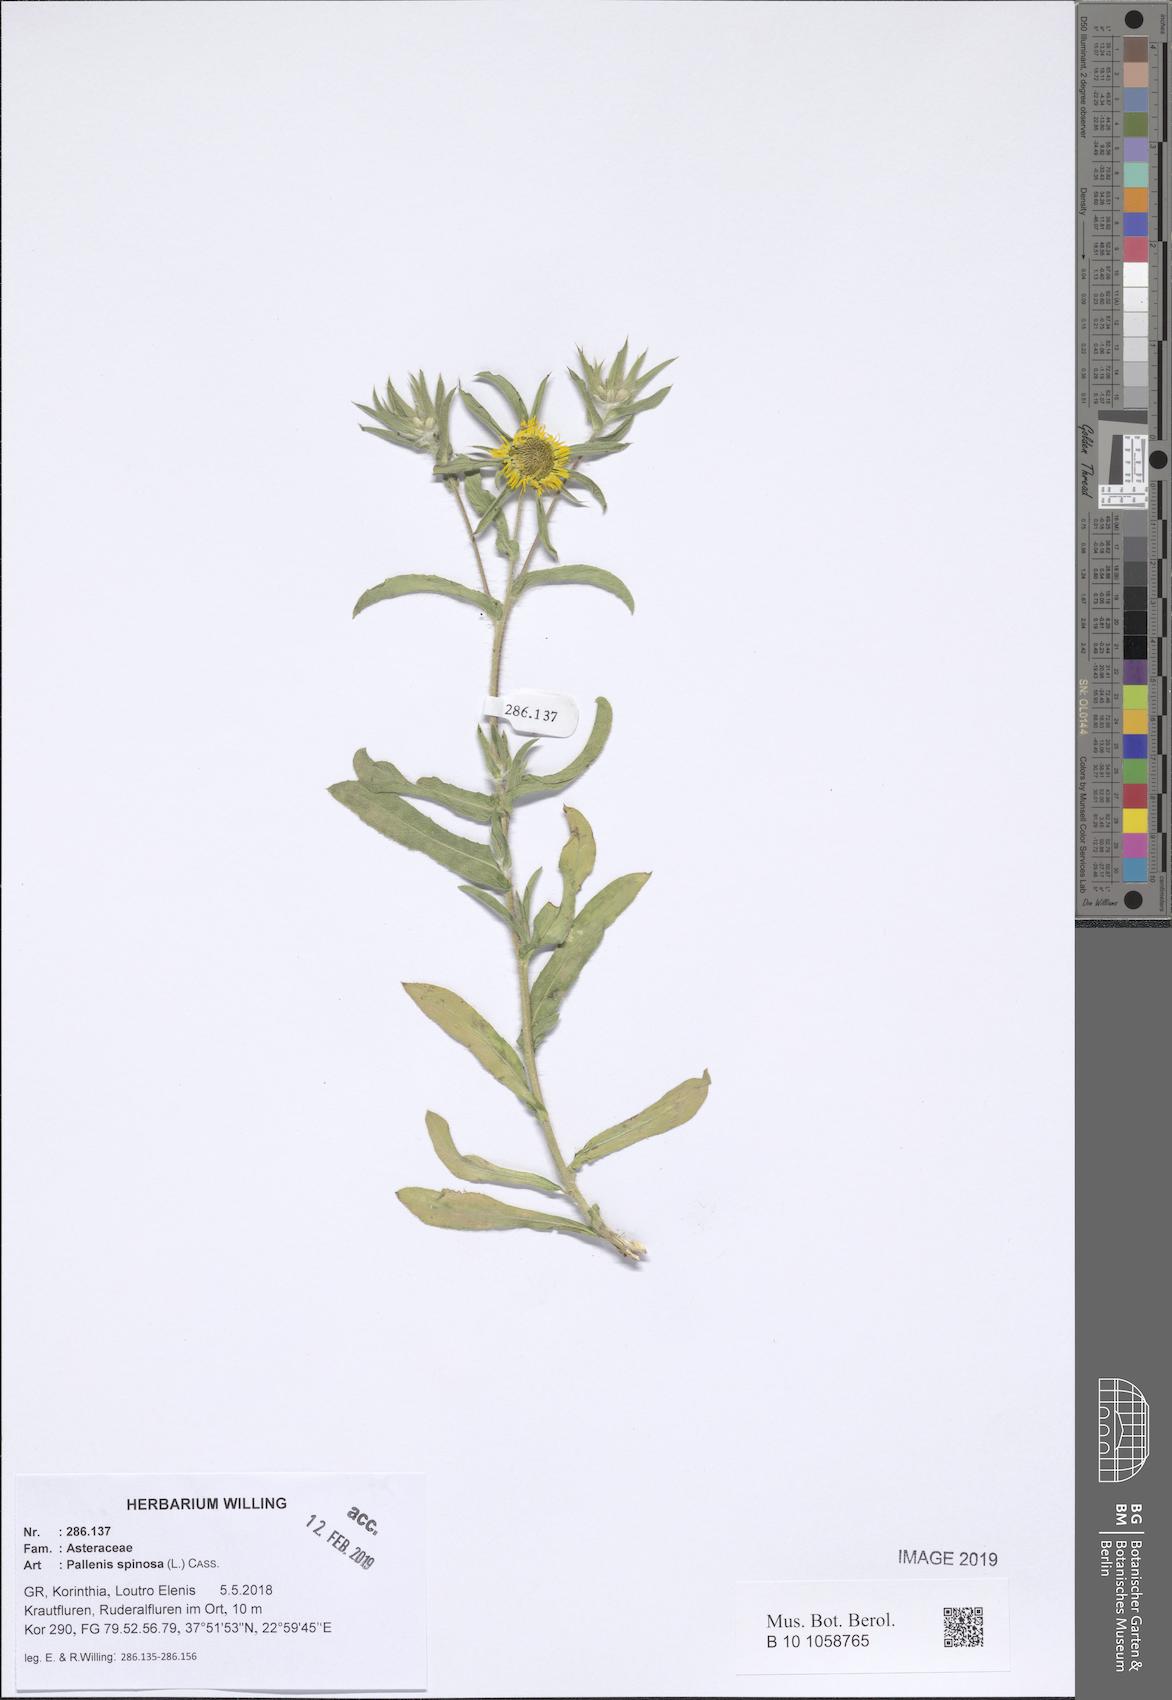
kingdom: Plantae
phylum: Tracheophyta
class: Magnoliopsida
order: Asterales
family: Asteraceae
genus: Pallenis
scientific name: Pallenis spinosa
